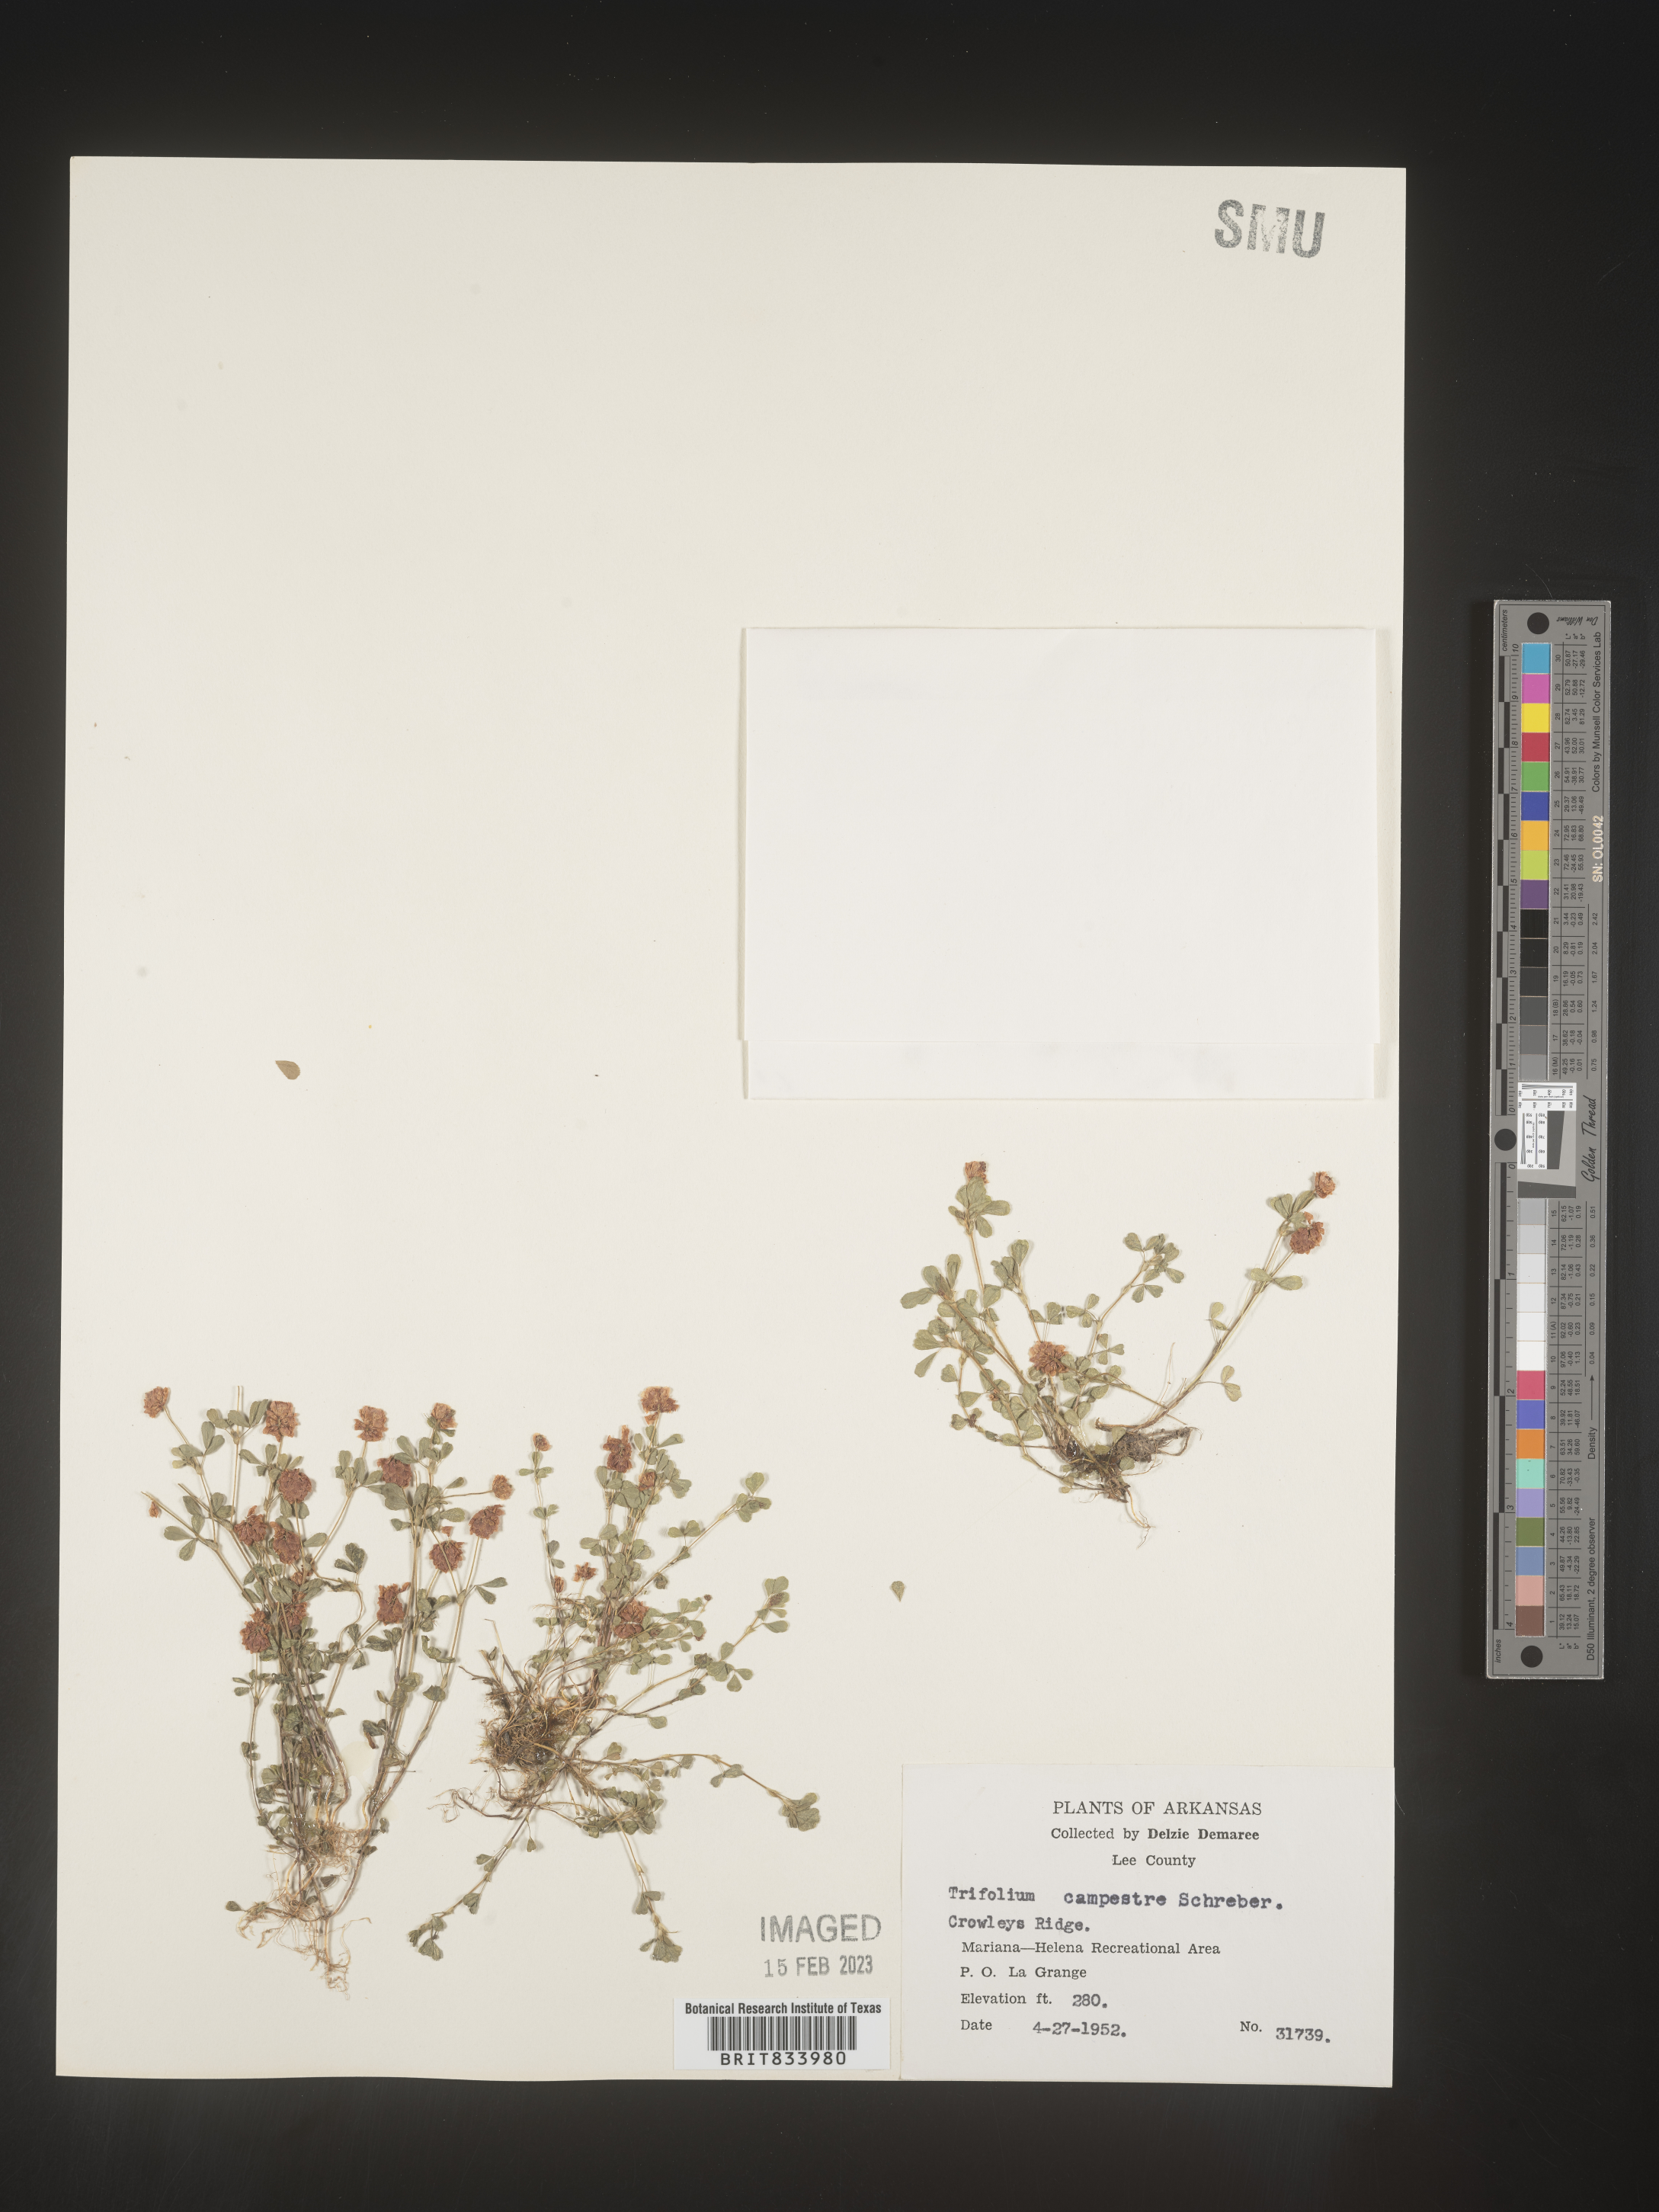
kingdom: Plantae
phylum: Tracheophyta
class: Magnoliopsida
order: Fabales
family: Fabaceae
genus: Trifolium
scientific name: Trifolium campestre
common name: Field clover
